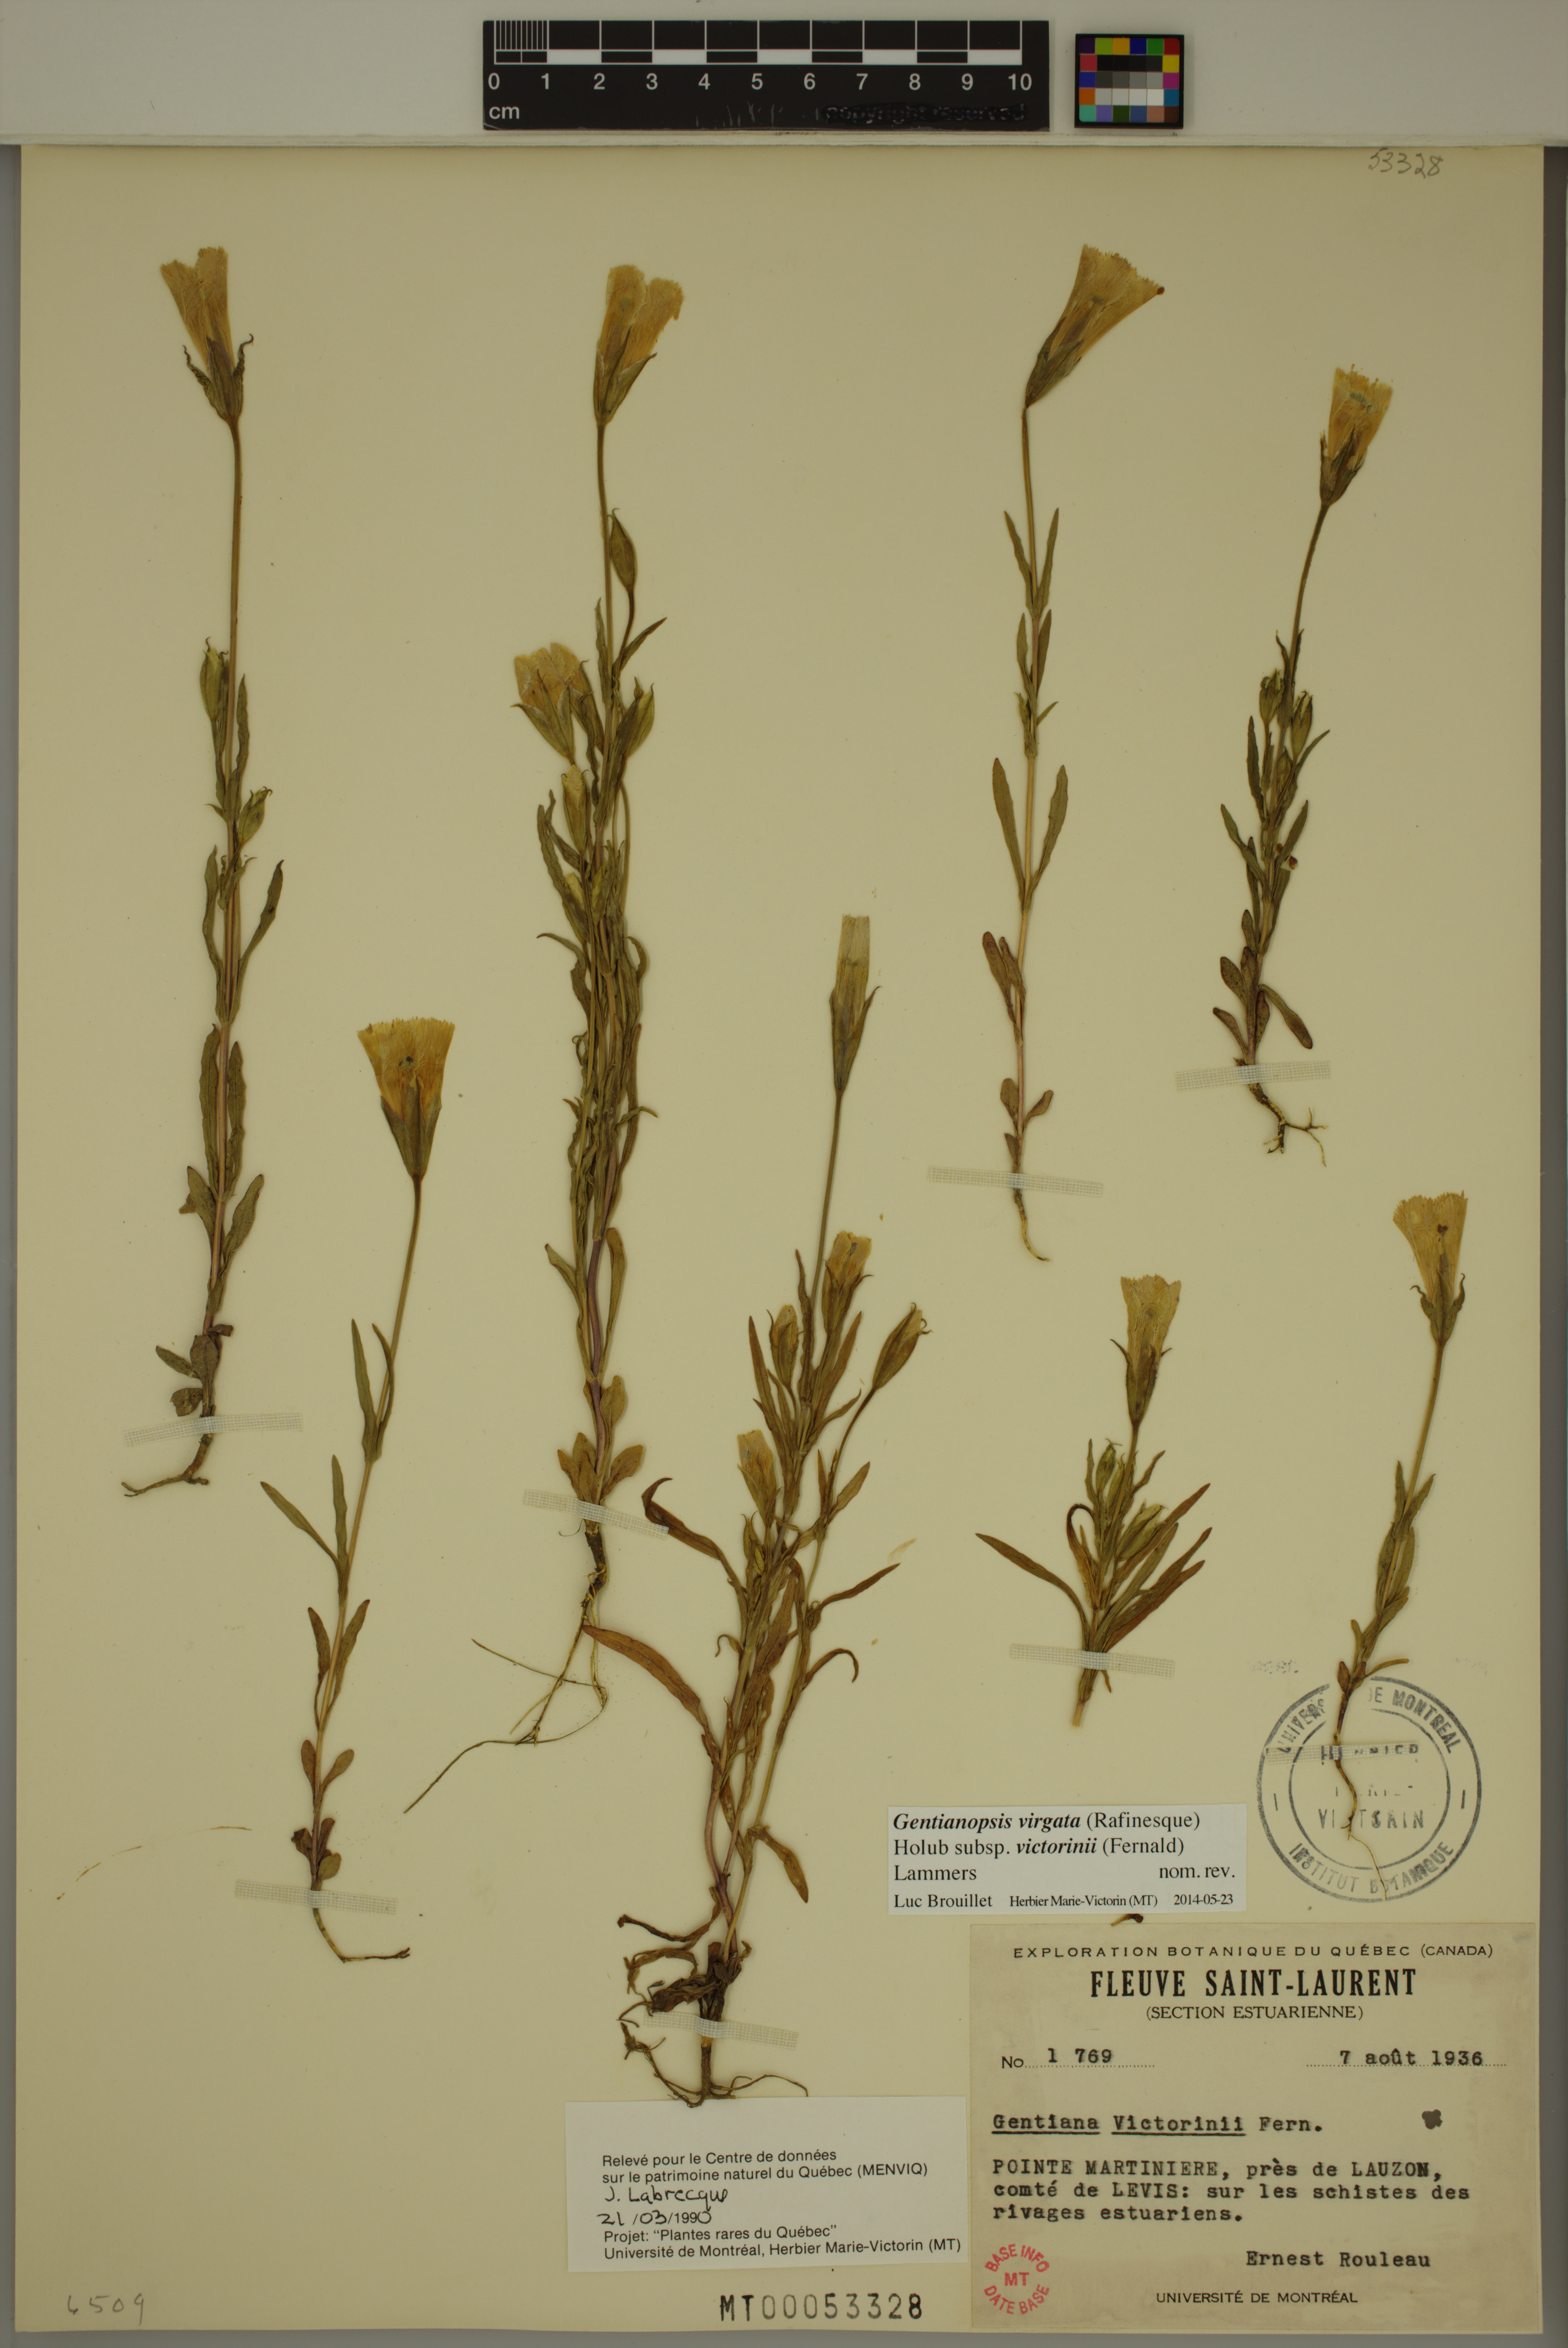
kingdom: Plantae
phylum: Tracheophyta
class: Magnoliopsida
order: Gentianales
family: Gentianaceae
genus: Gentianopsis
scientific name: Gentianopsis victorinii
